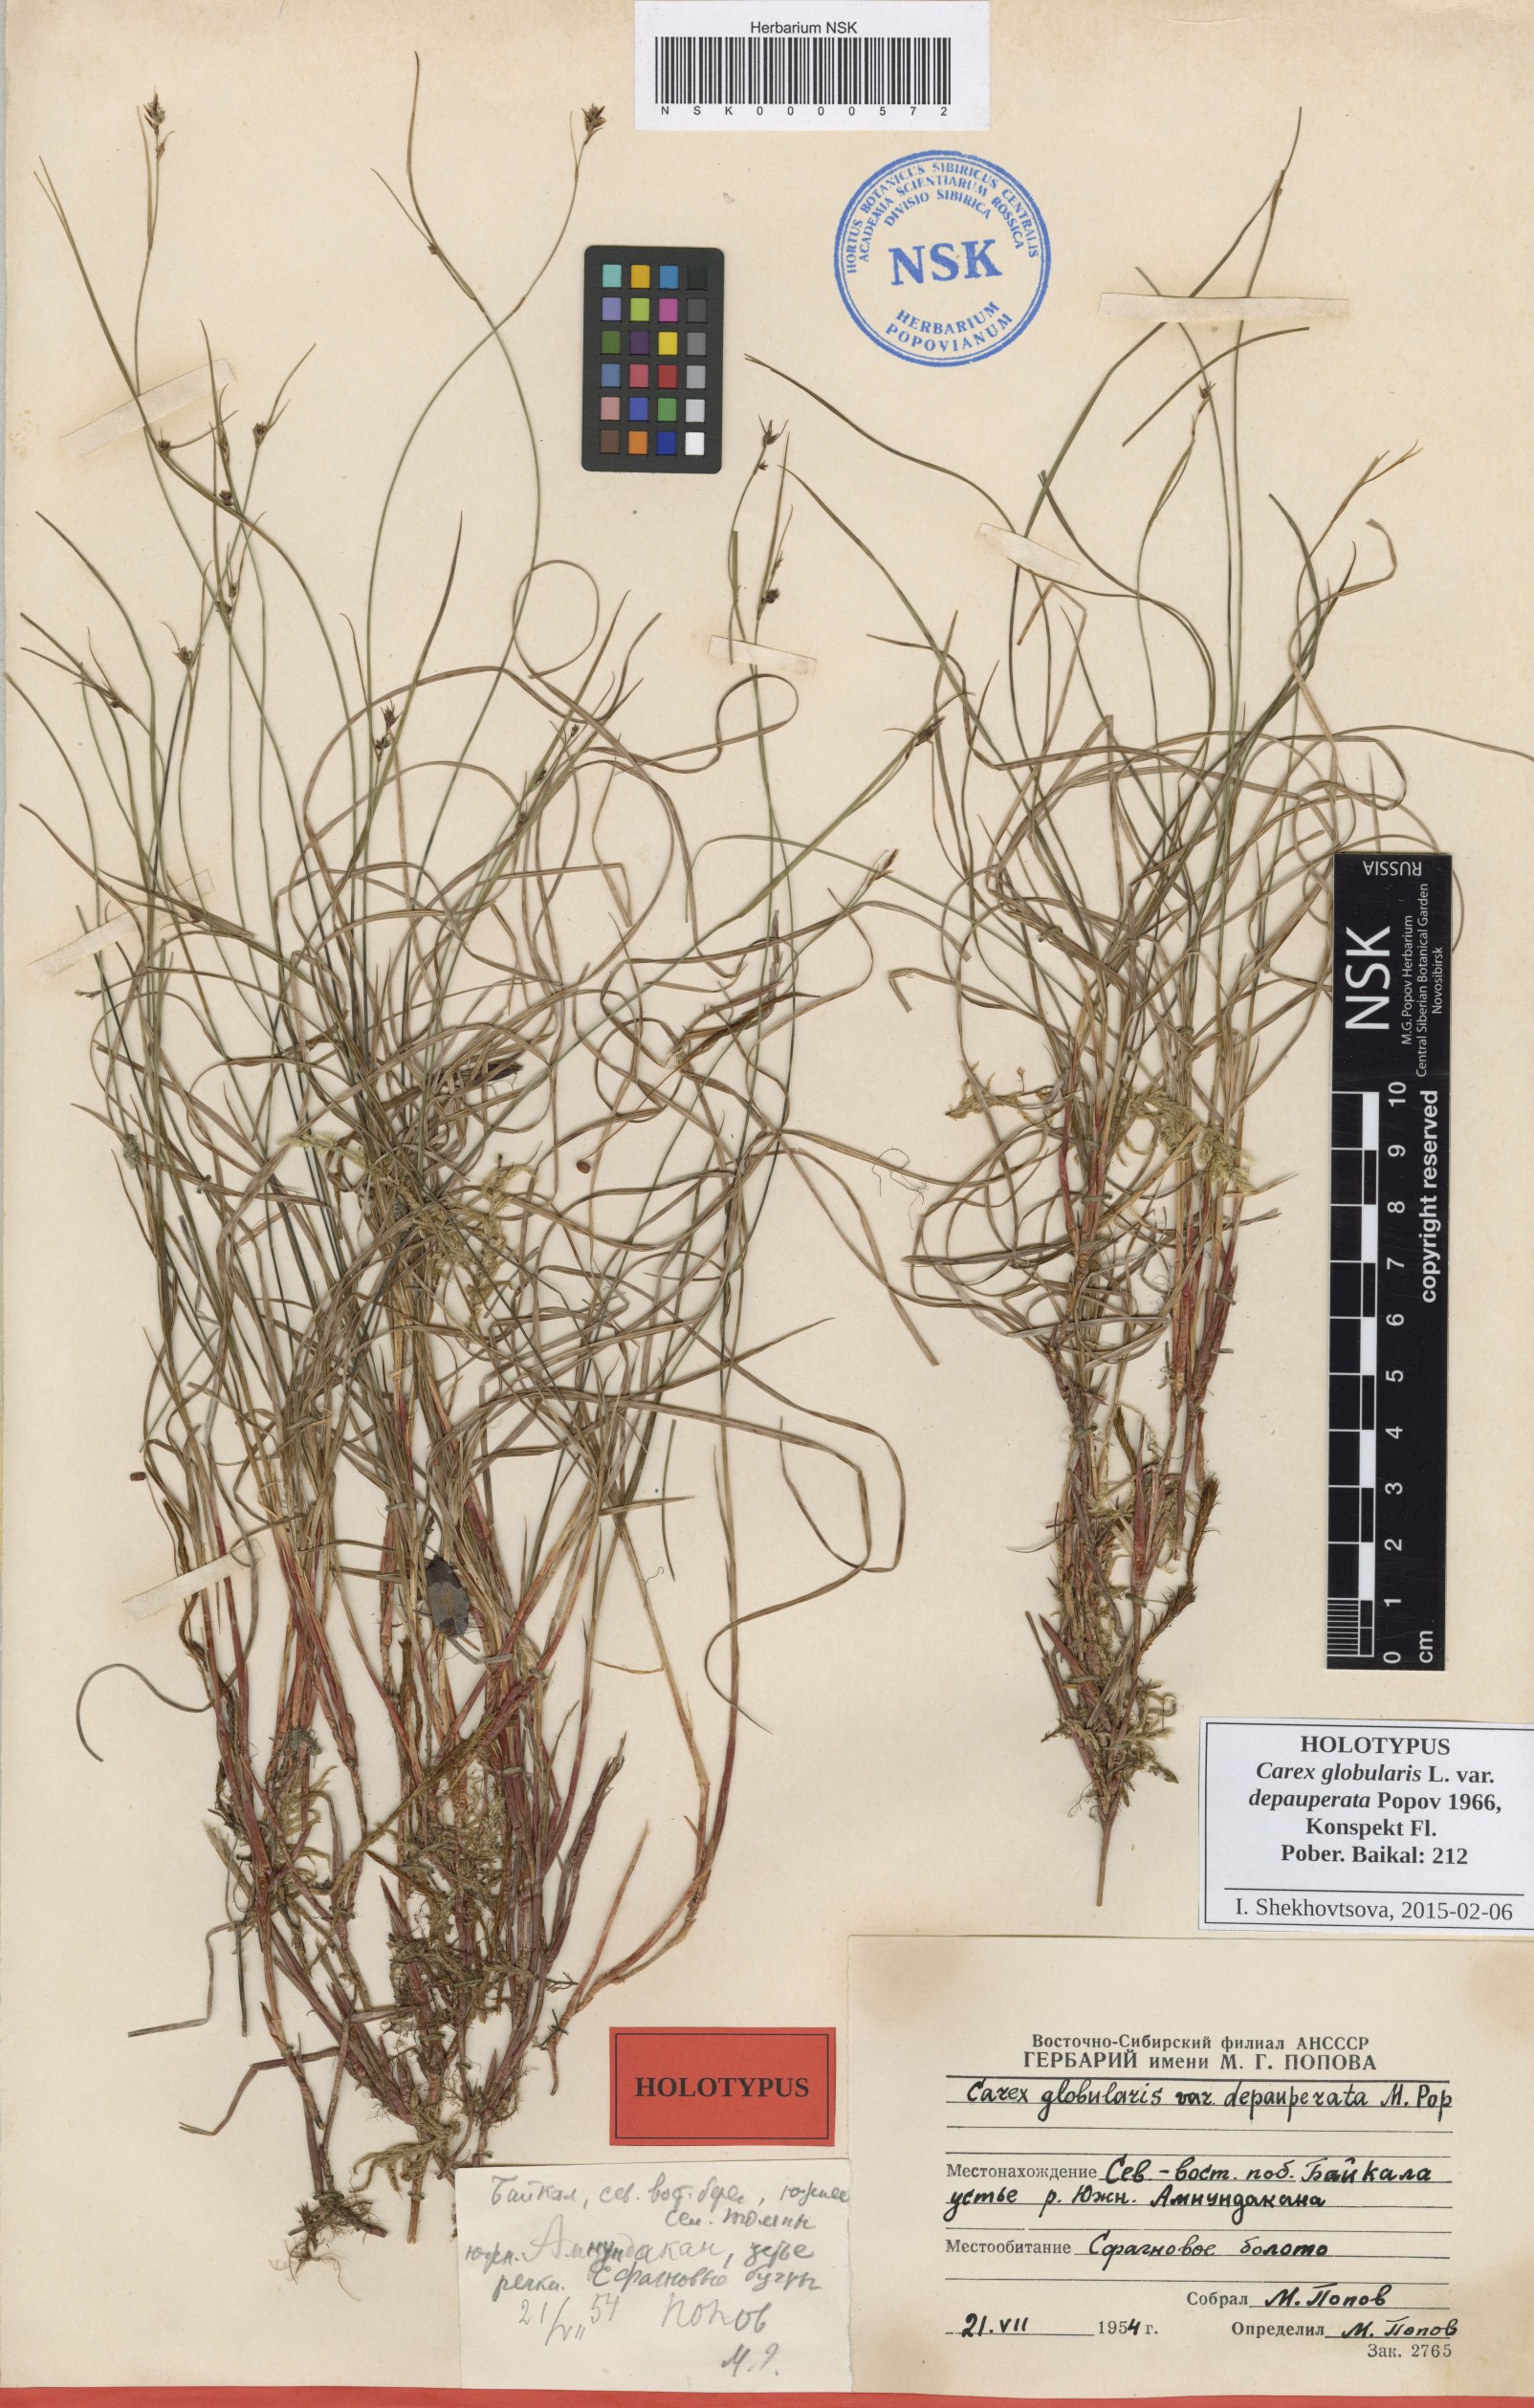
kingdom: Plantae
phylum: Tracheophyta
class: Liliopsida
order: Poales
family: Cyperaceae
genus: Carex
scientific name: Carex globularis
